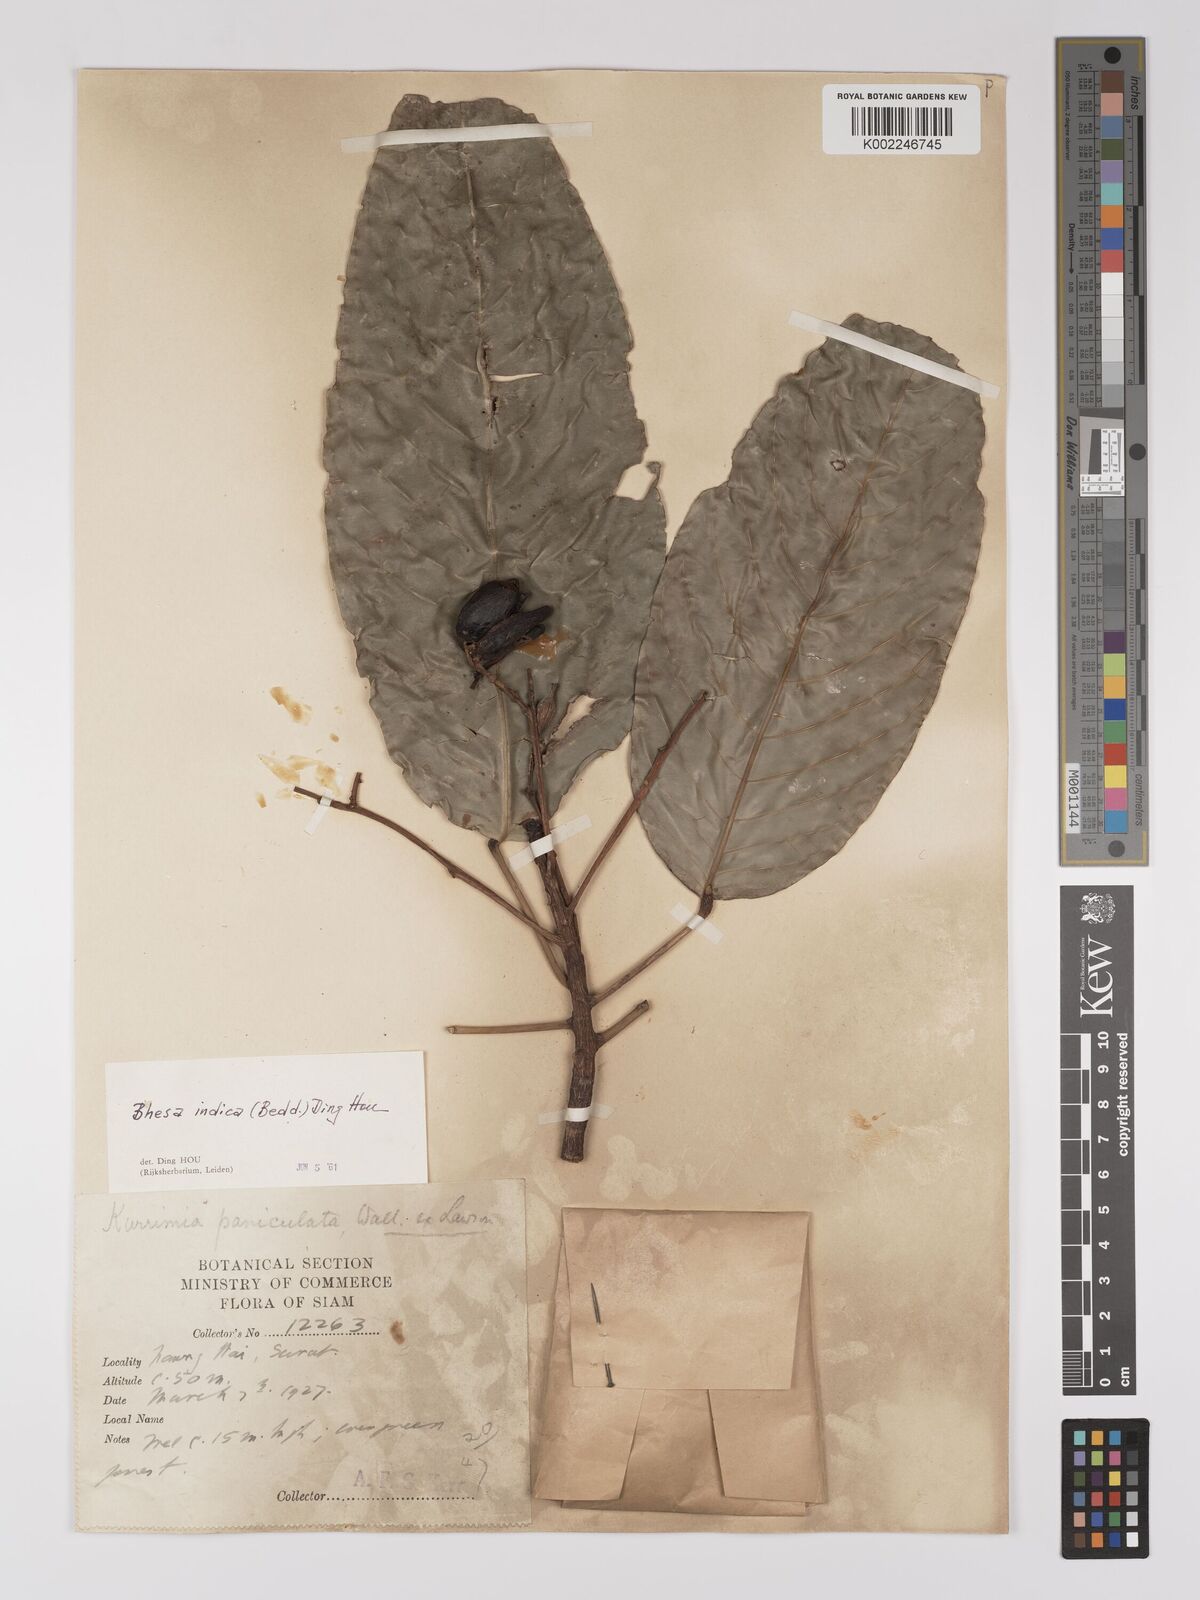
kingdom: Plantae
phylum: Tracheophyta
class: Magnoliopsida
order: Malpighiales
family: Centroplacaceae
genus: Bhesa
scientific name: Bhesa indica
